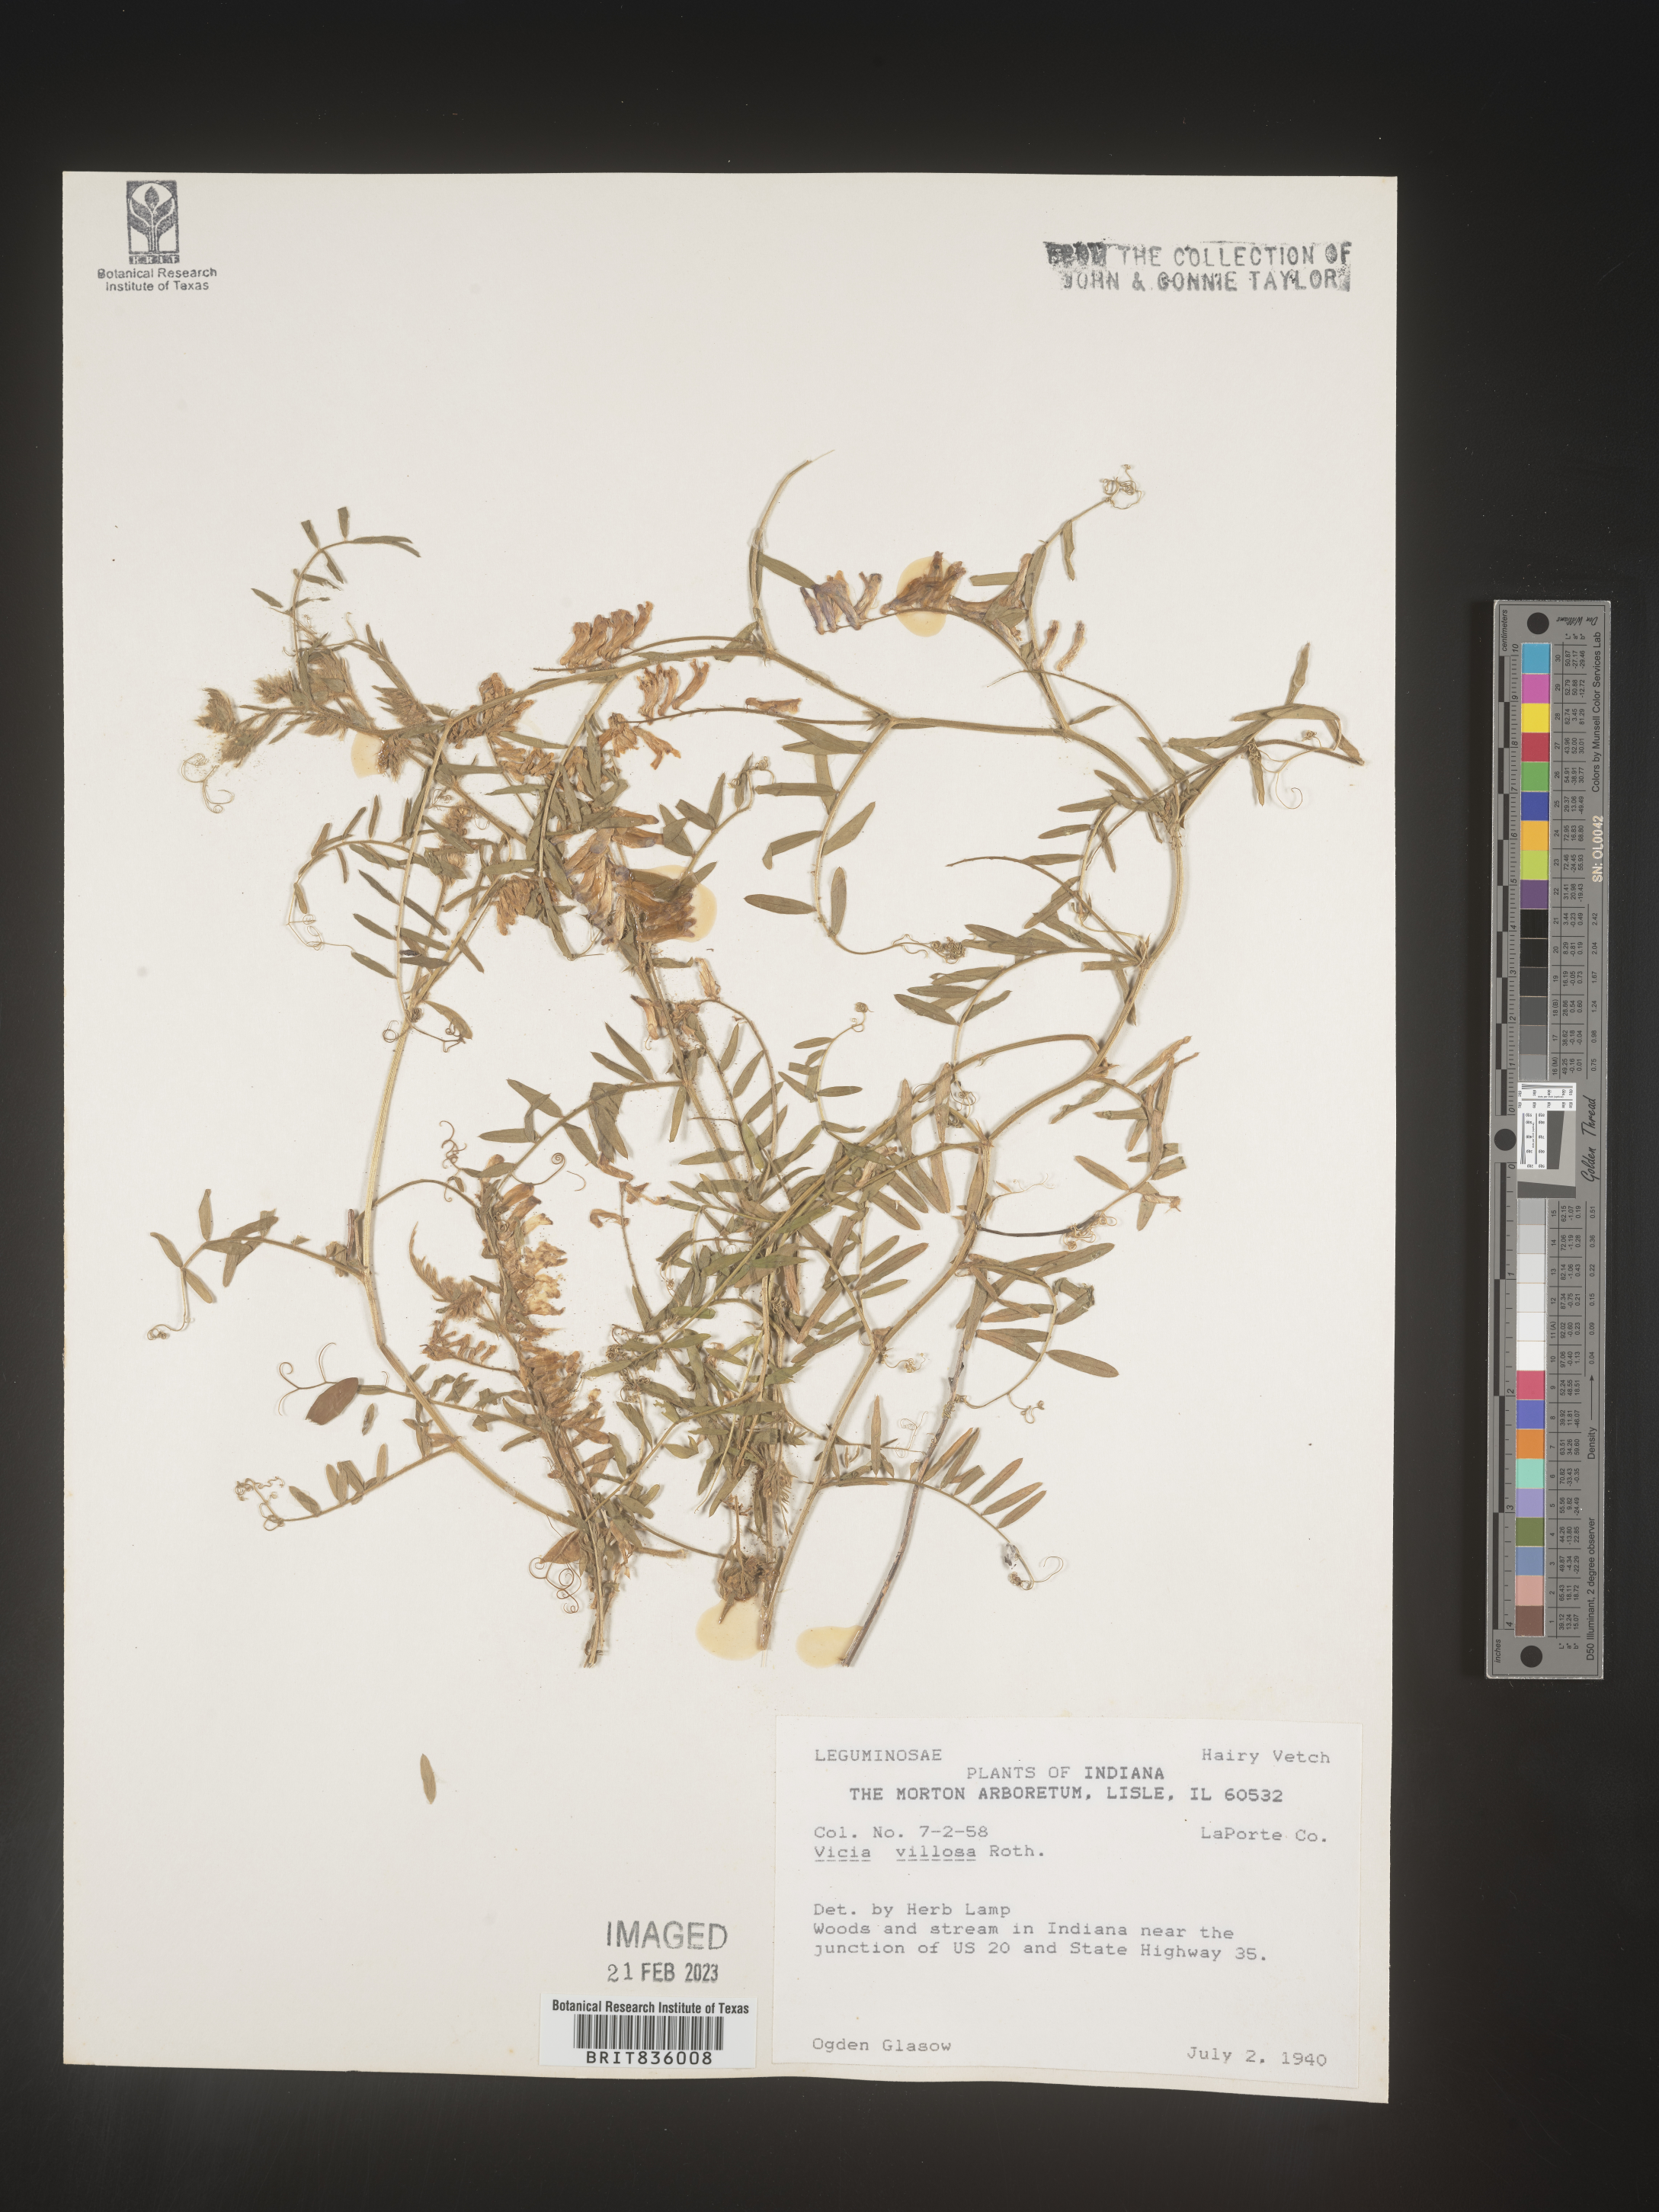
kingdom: Plantae
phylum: Tracheophyta
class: Magnoliopsida
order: Fabales
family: Fabaceae
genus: Vicia
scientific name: Vicia villosa
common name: Fodder vetch
